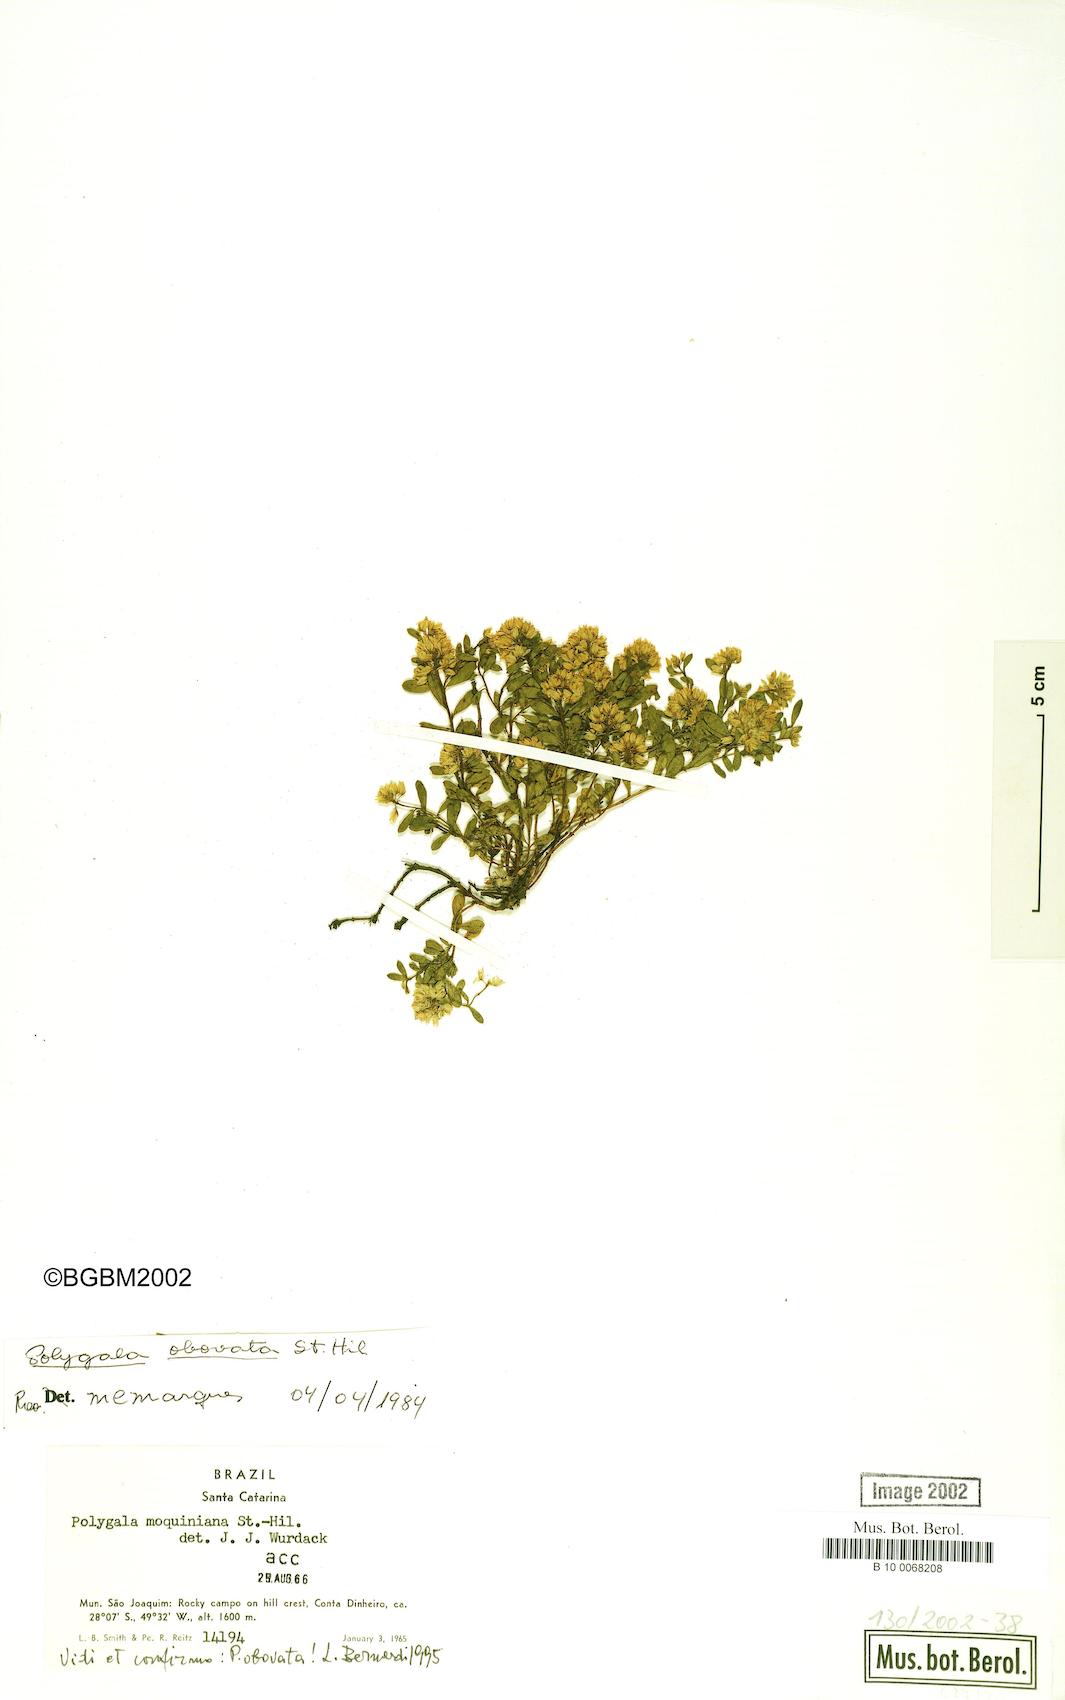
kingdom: Plantae
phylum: Tracheophyta
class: Magnoliopsida
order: Fabales
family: Polygalaceae
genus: Polygala
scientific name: Polygala obovata
